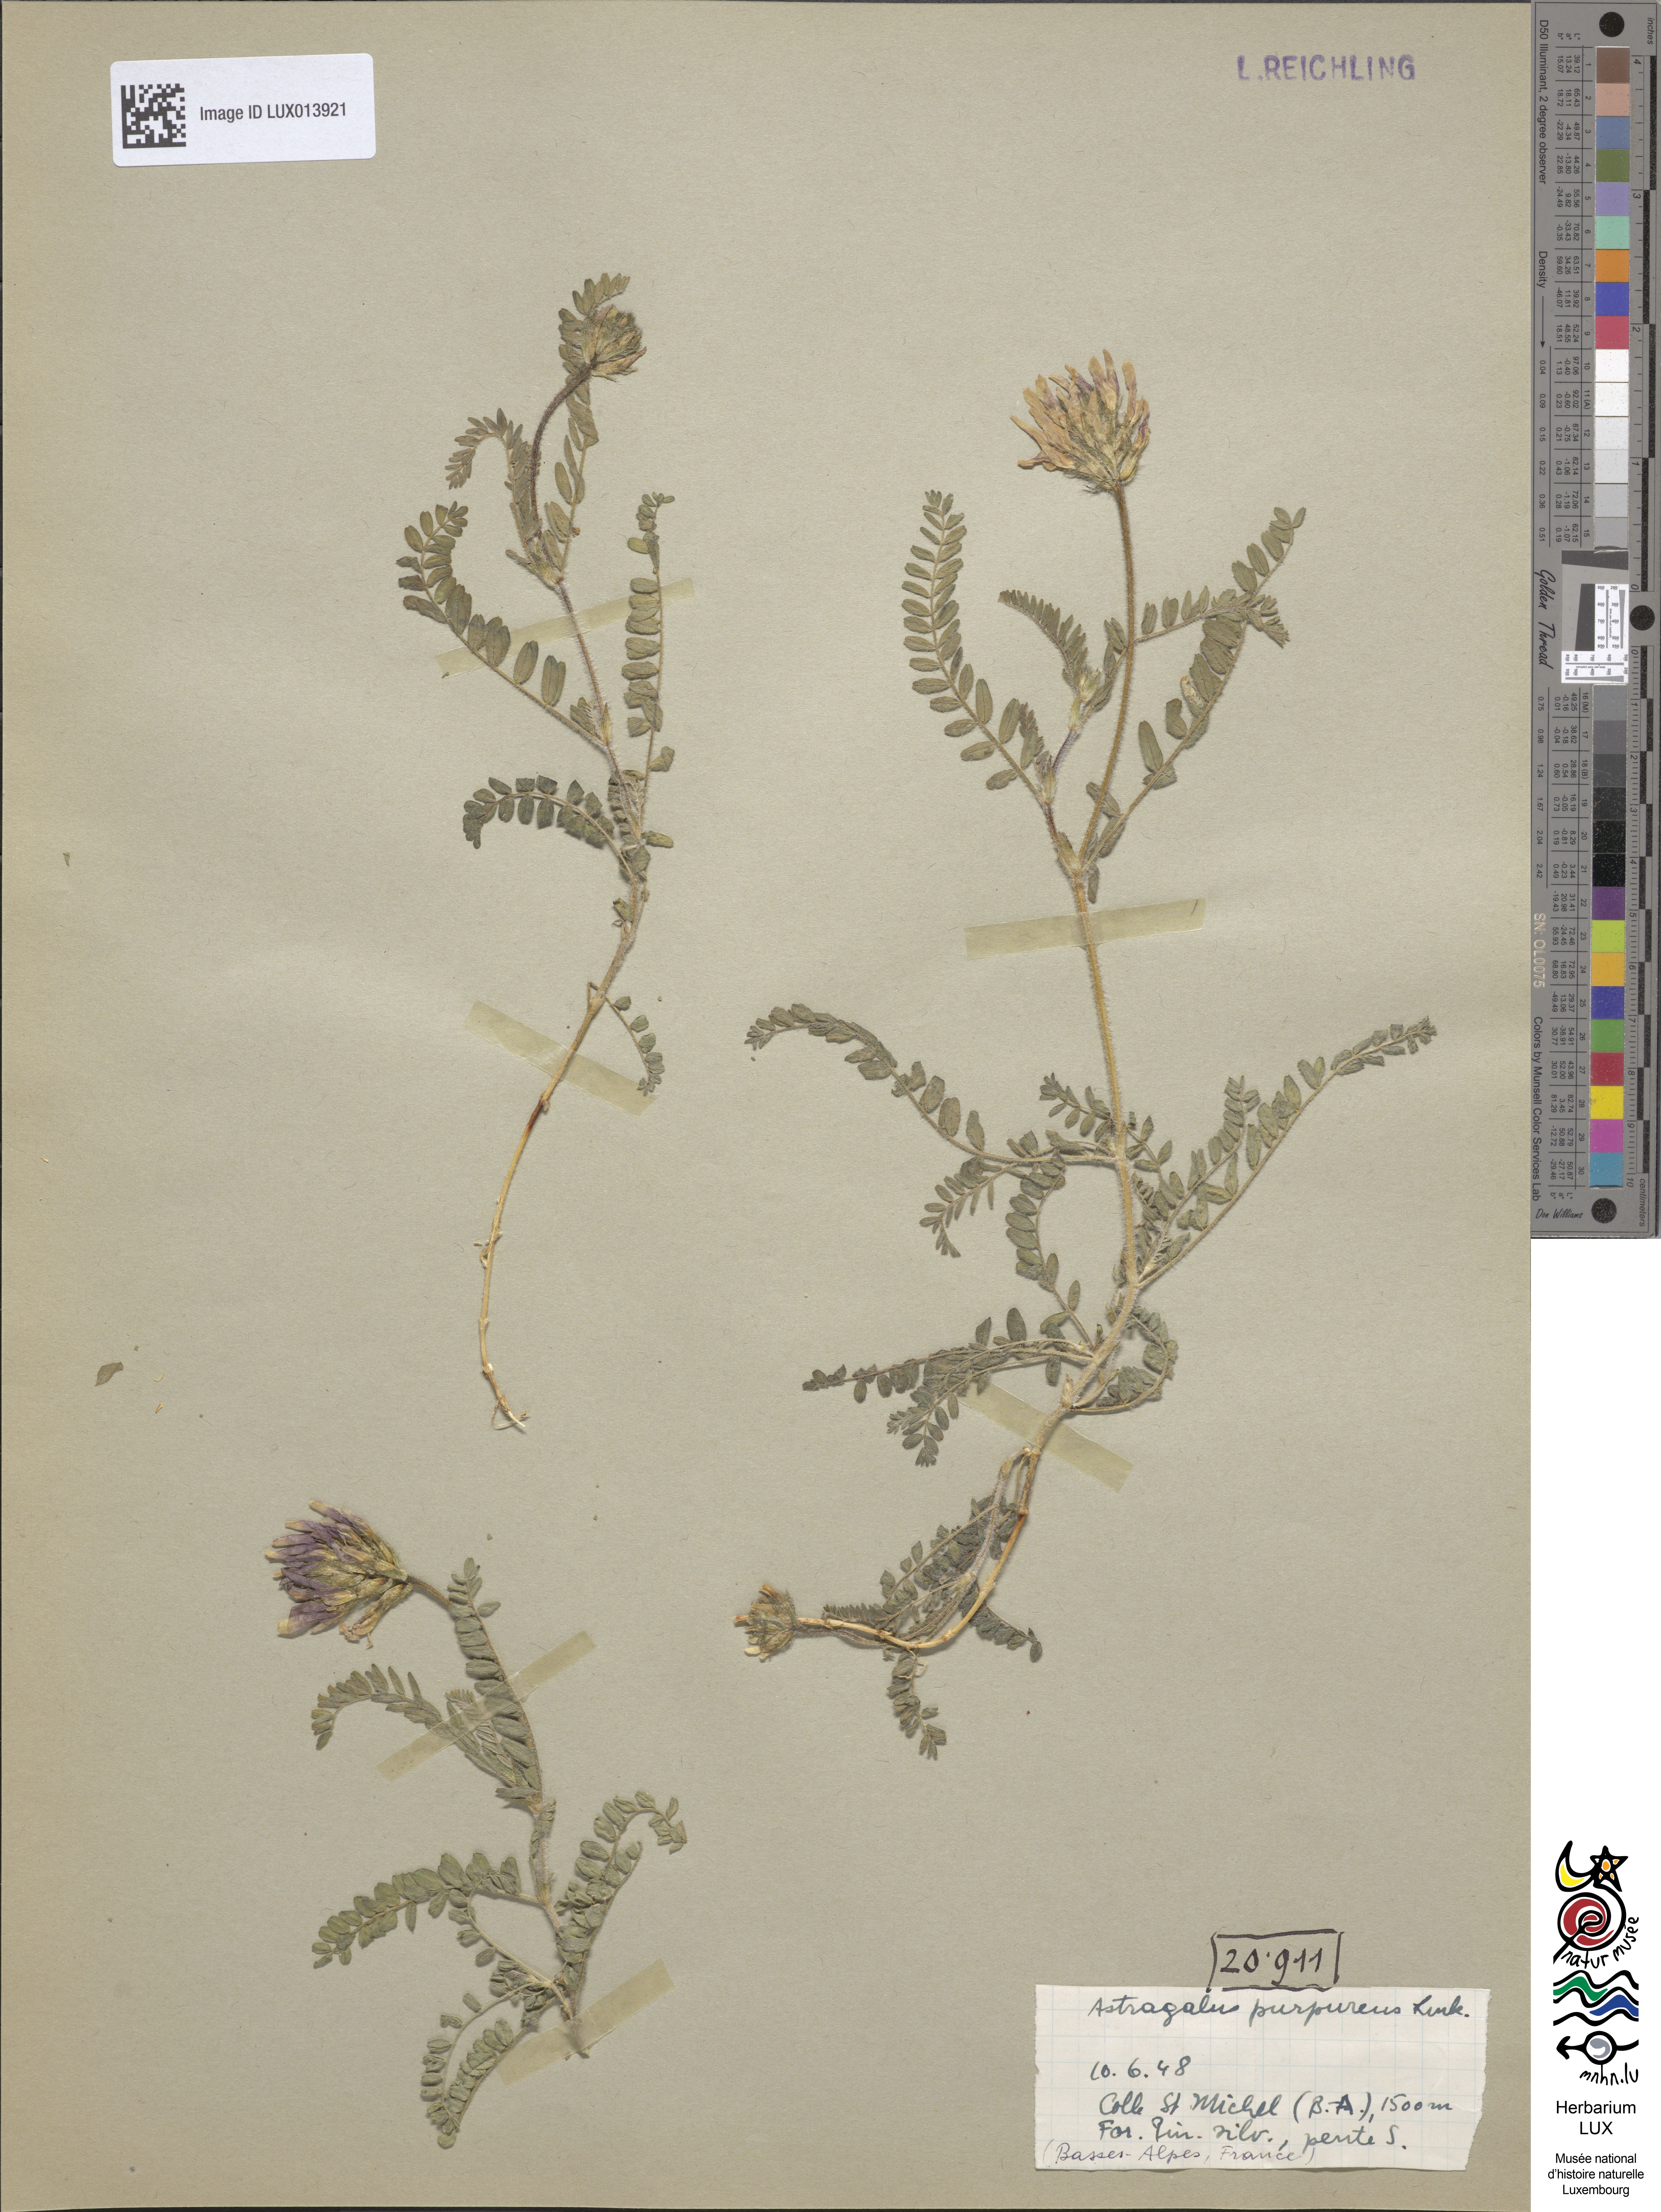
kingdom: Plantae
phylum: Tracheophyta
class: Magnoliopsida
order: Fabales
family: Fabaceae
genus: Astragalus
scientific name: Astragalus hypoglottis
